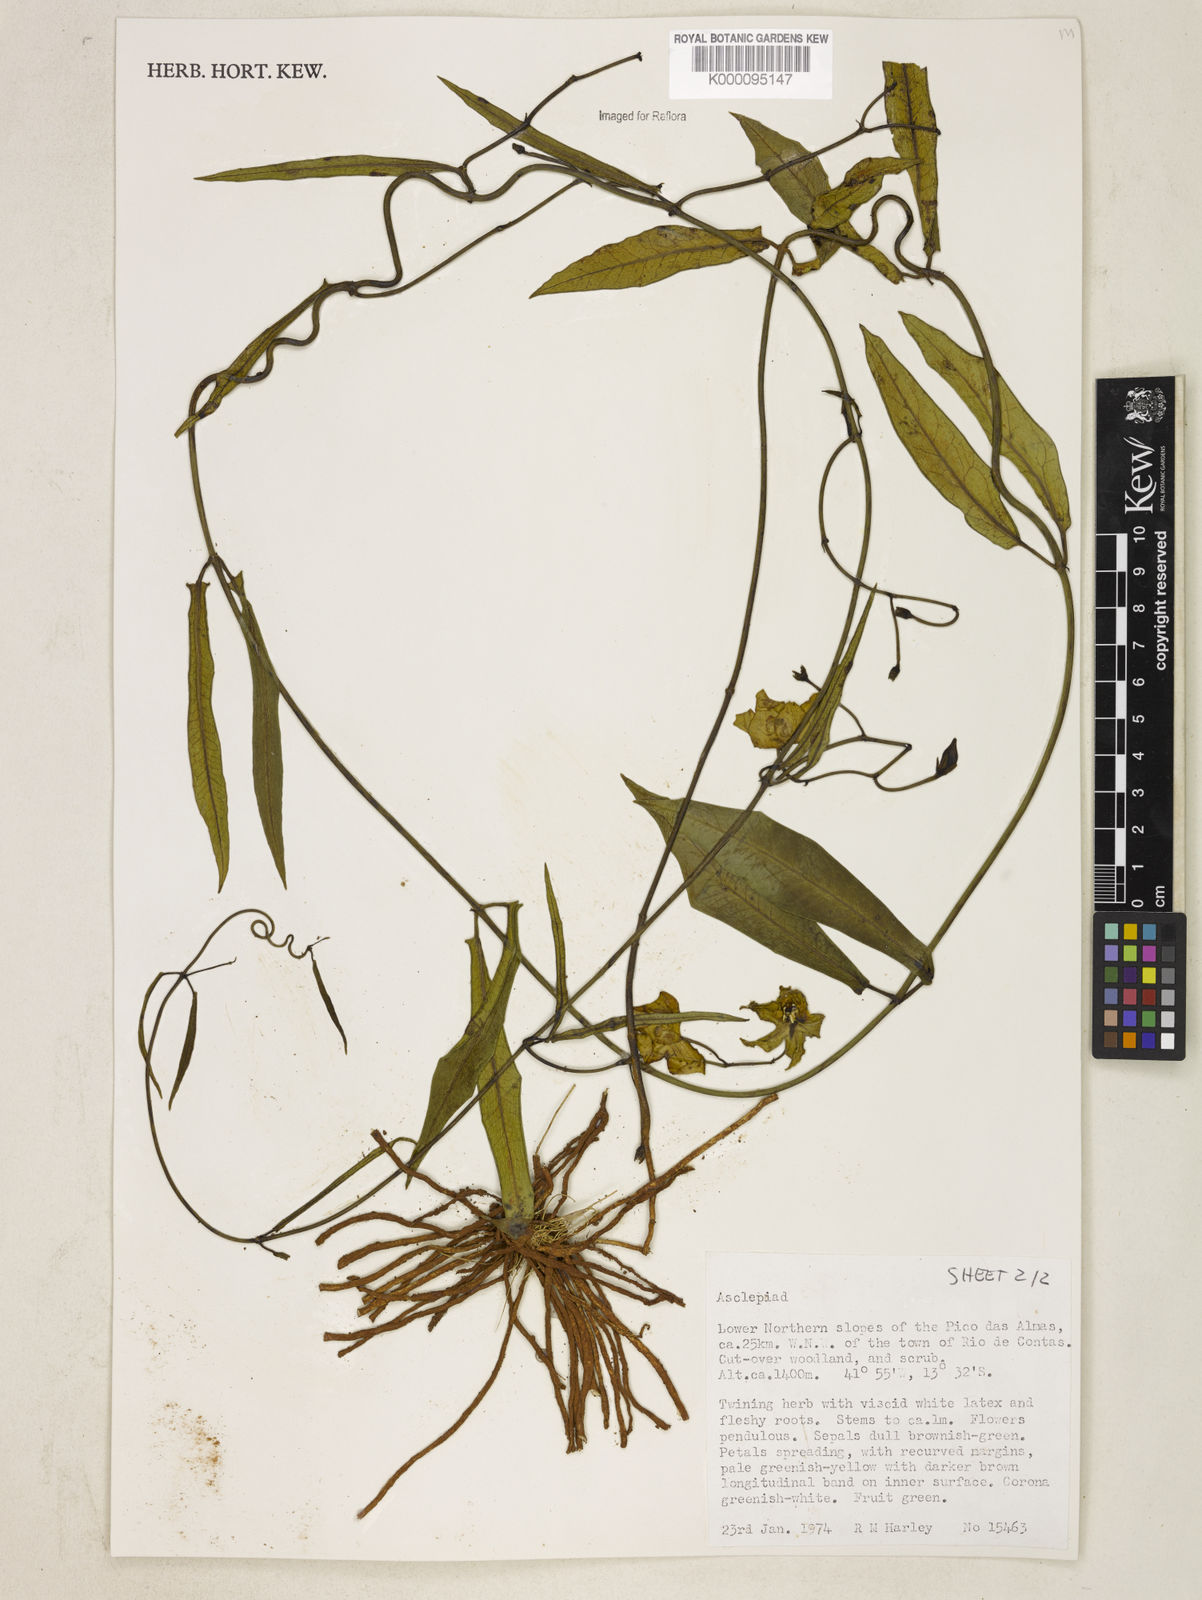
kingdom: Plantae
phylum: Tracheophyta
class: Magnoliopsida
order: Gentianales
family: Apocynaceae
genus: Blepharodon
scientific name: Blepharodon ampliflorum
